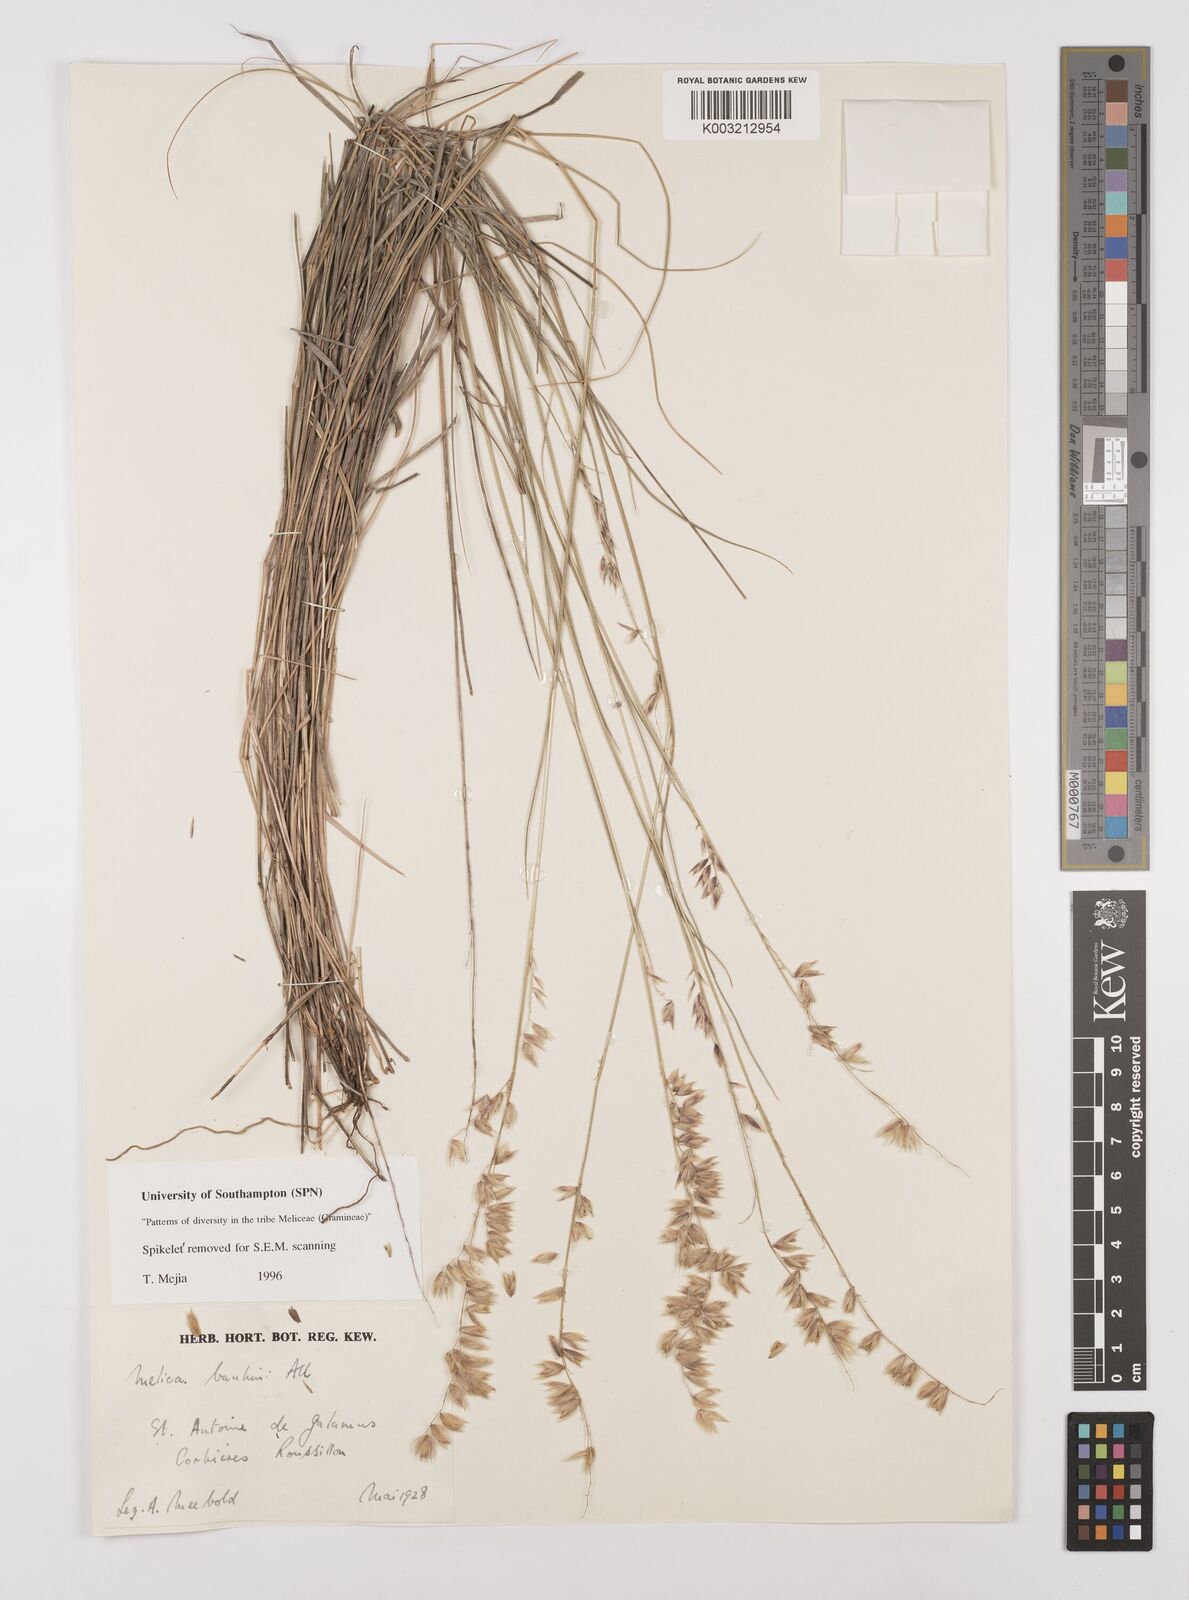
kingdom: Plantae
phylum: Tracheophyta
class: Liliopsida
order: Poales
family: Poaceae
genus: Melica
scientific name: Melica amethystina
